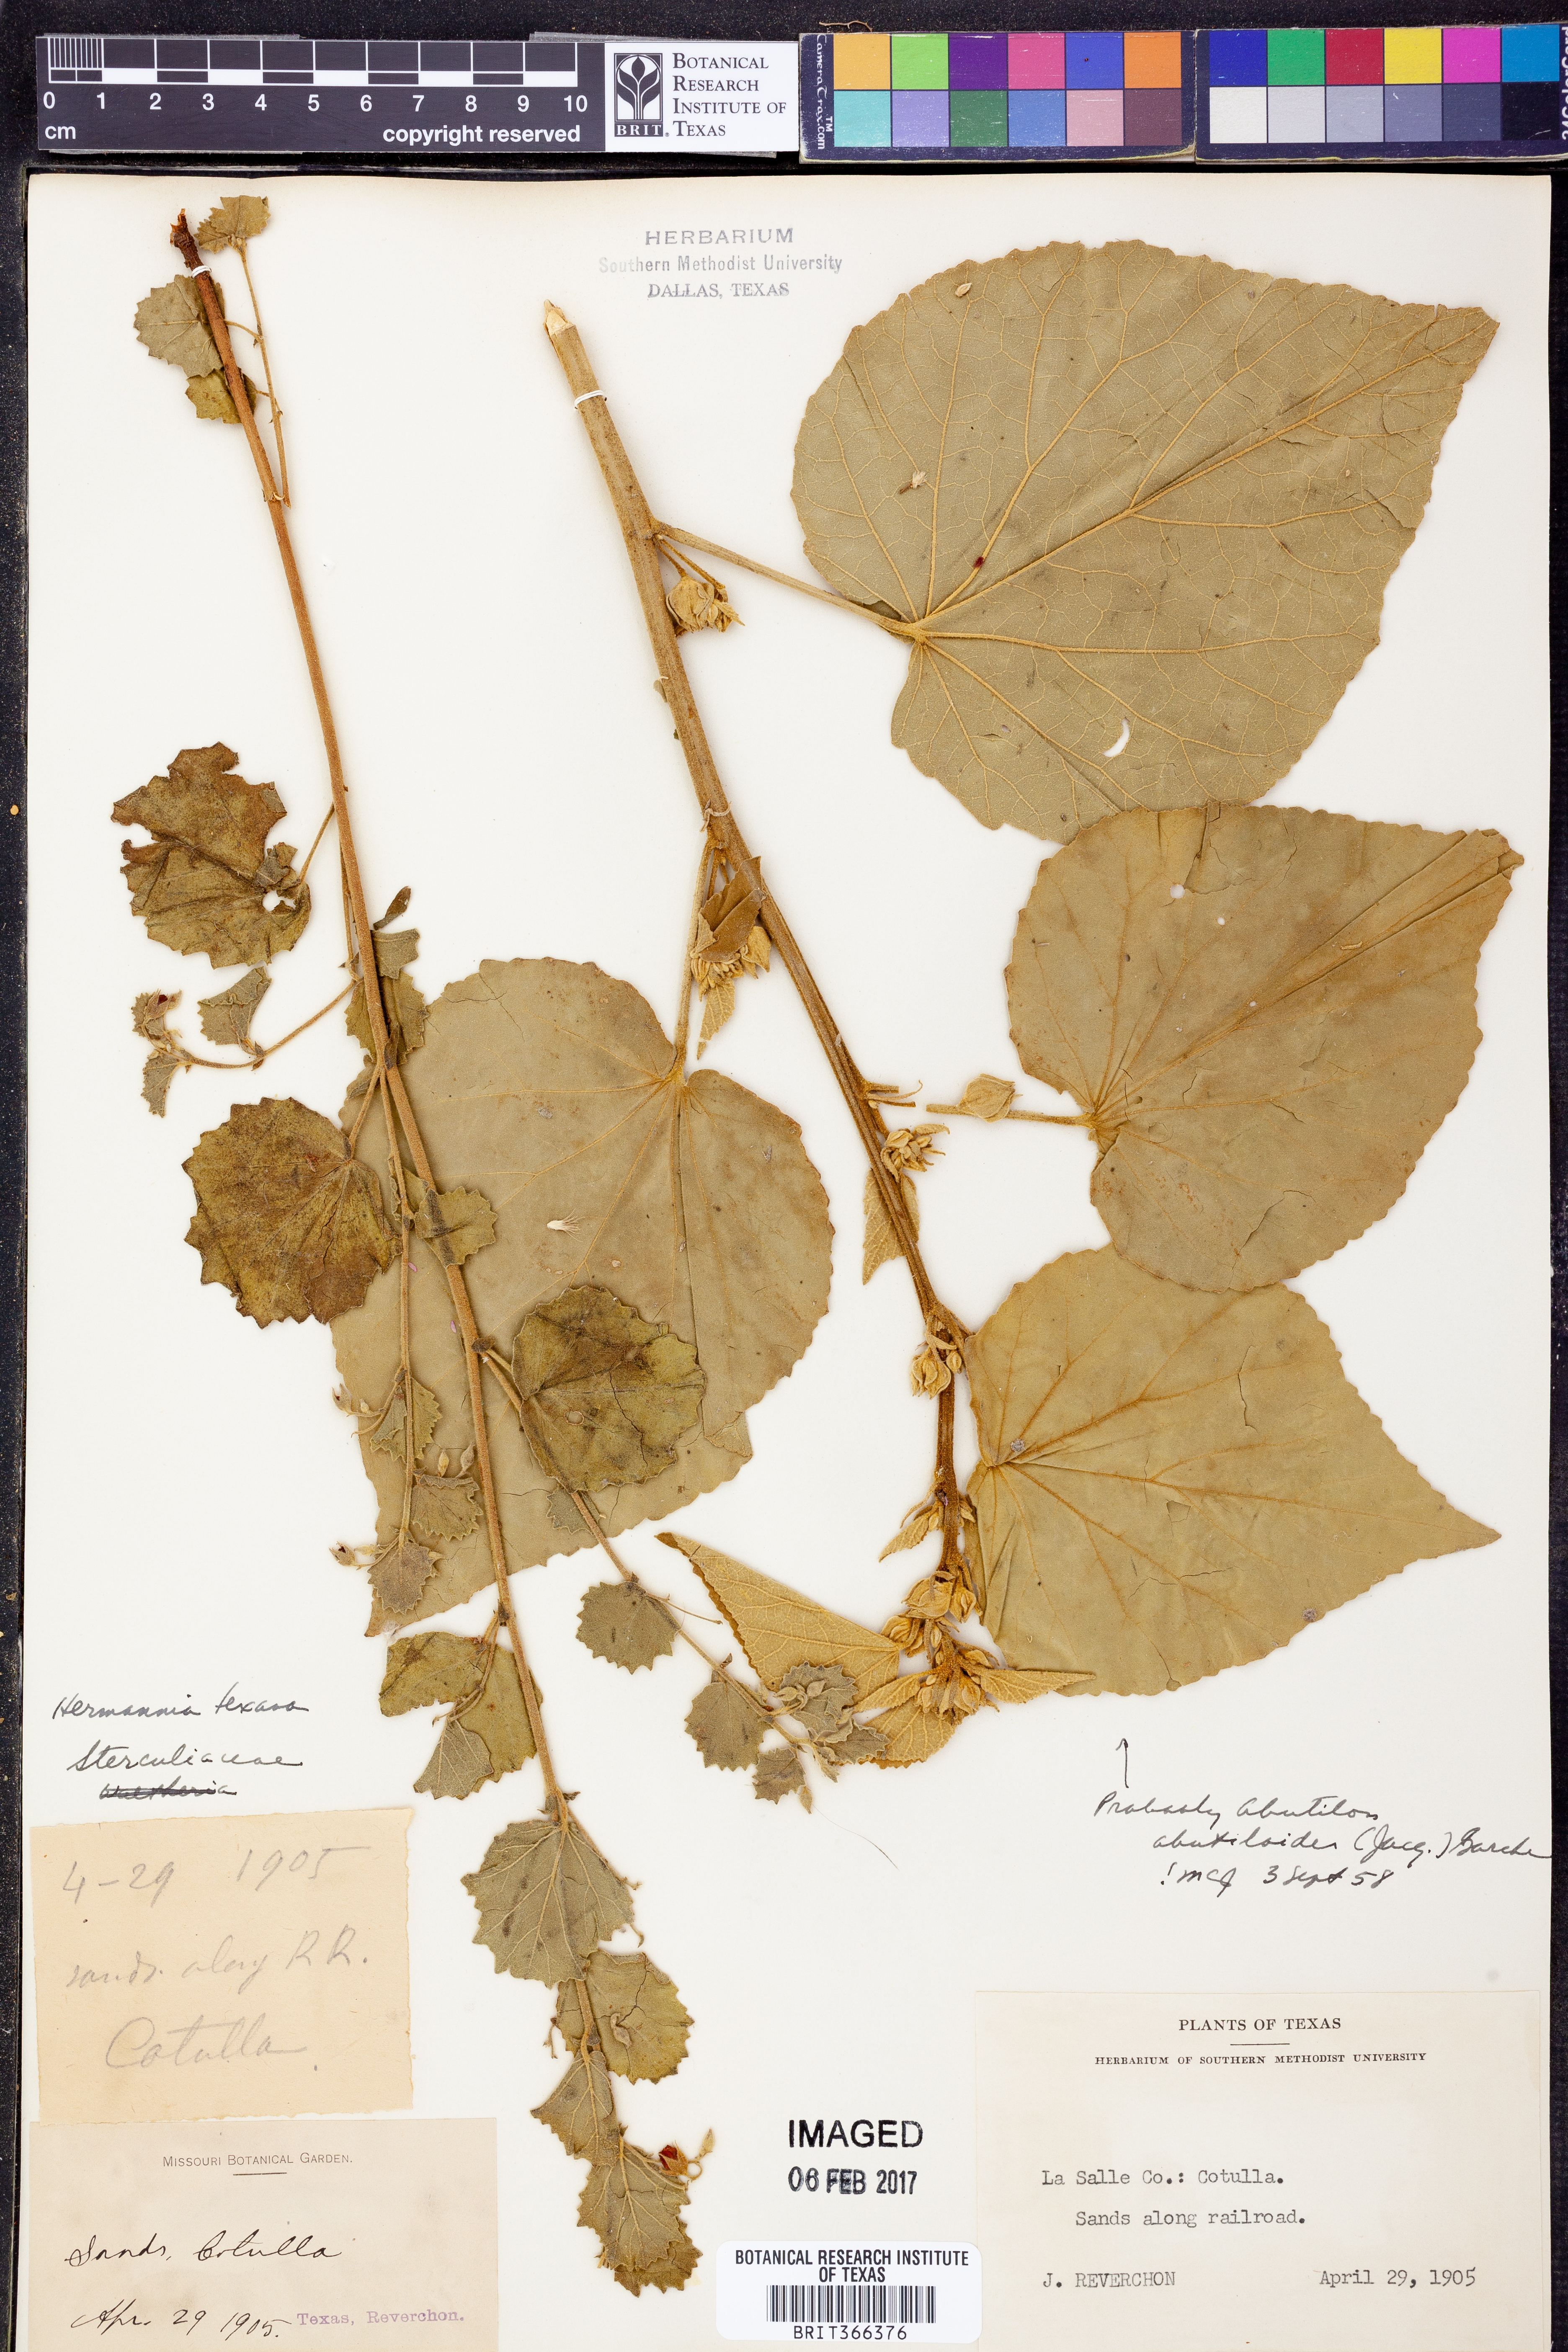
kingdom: Plantae
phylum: Tracheophyta
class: Magnoliopsida
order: Malvales
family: Malvaceae
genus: Abutilon
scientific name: Abutilon abutiloides
